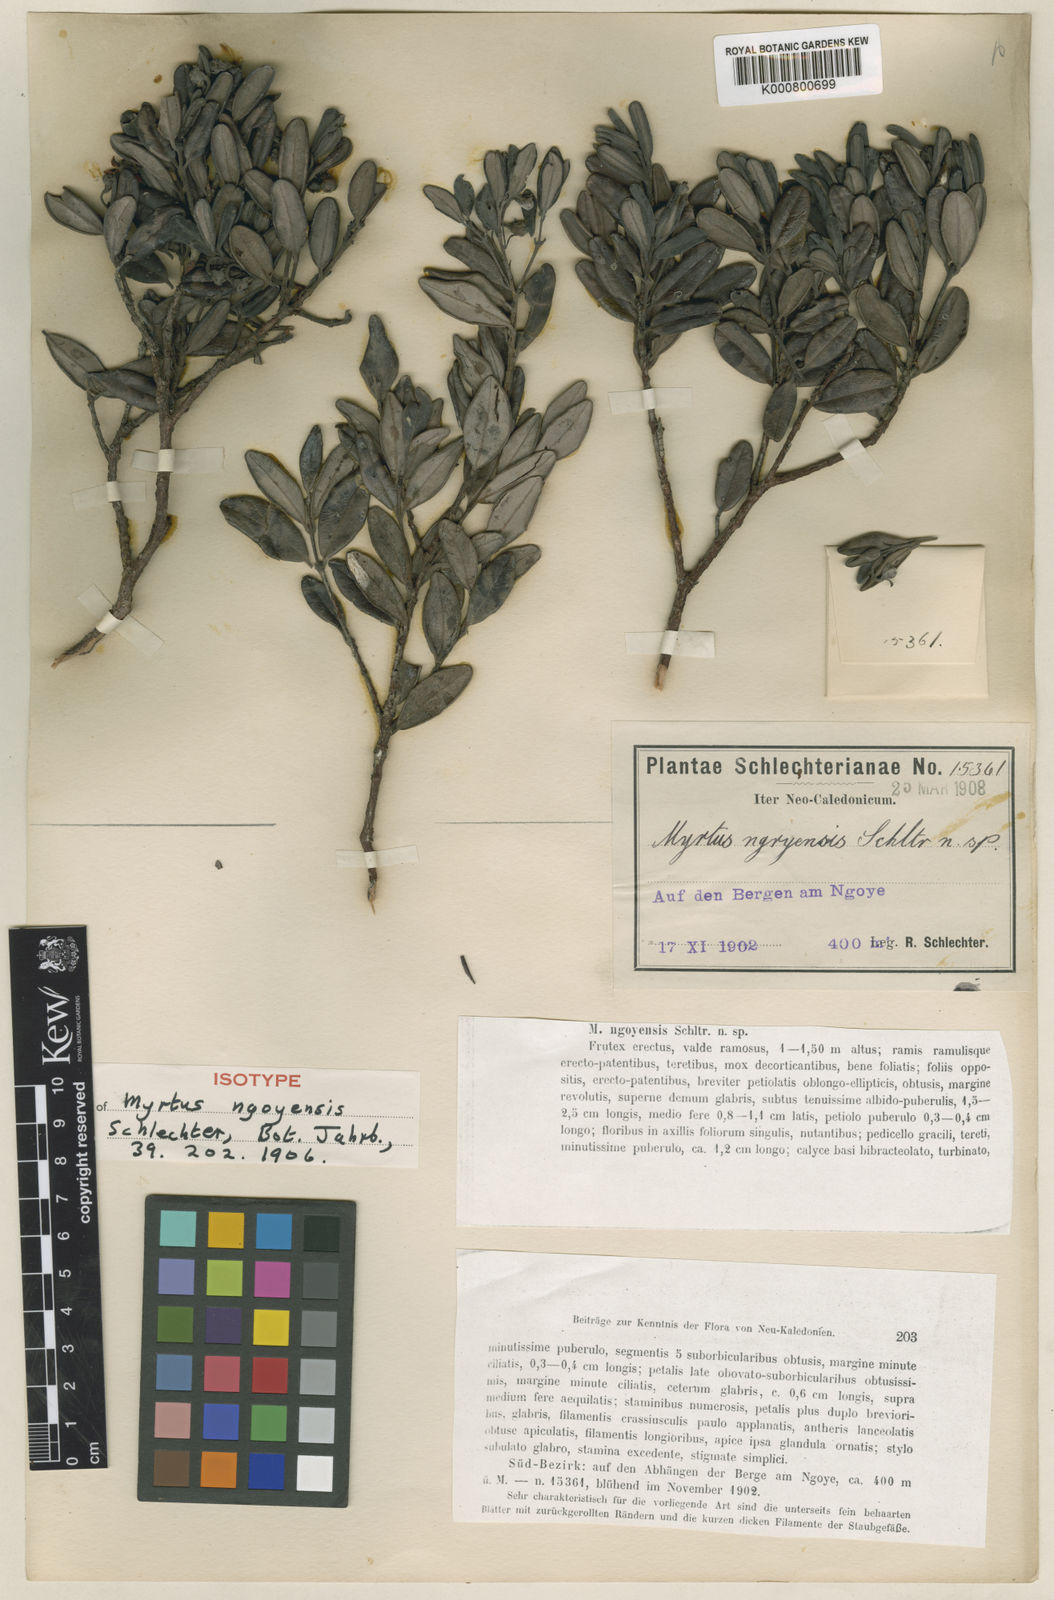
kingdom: Plantae
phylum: Tracheophyta
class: Magnoliopsida
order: Myrtales
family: Myrtaceae
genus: Uromyrtus
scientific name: Uromyrtus ngoyensis
